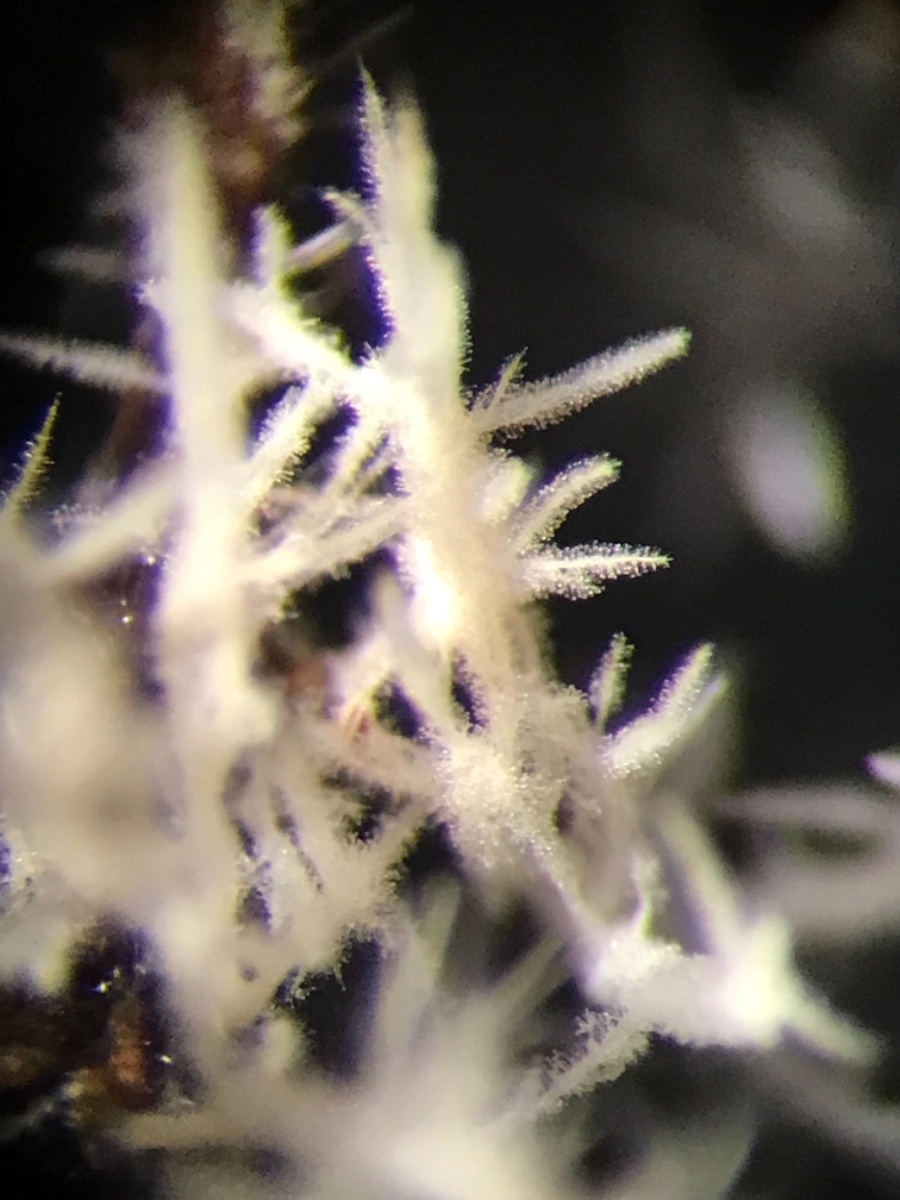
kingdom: Fungi
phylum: Ascomycota
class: Sordariomycetes
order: Hypocreales
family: Tilachlidiaceae
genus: Tilachlidium
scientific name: Tilachlidium brachiatum
